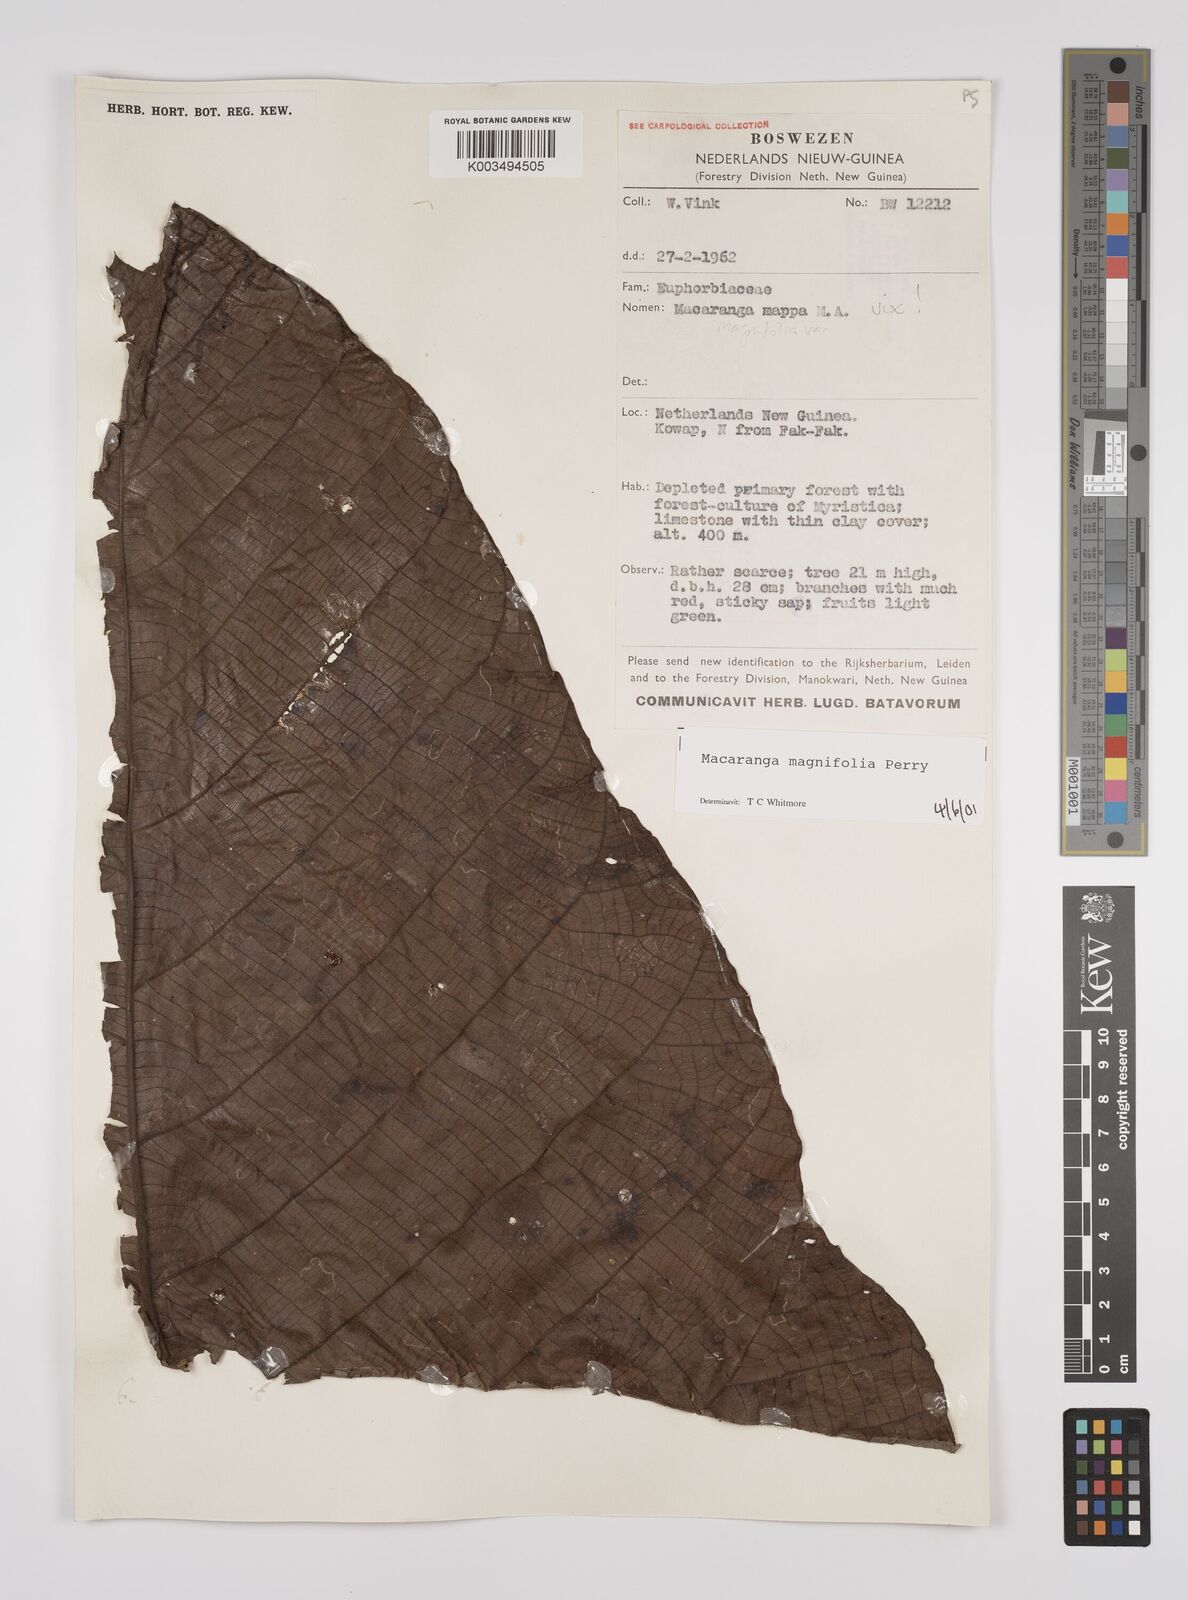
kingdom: Plantae
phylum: Tracheophyta
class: Magnoliopsida
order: Malpighiales
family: Euphorbiaceae
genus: Macaranga
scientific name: Macaranga magnifolia
